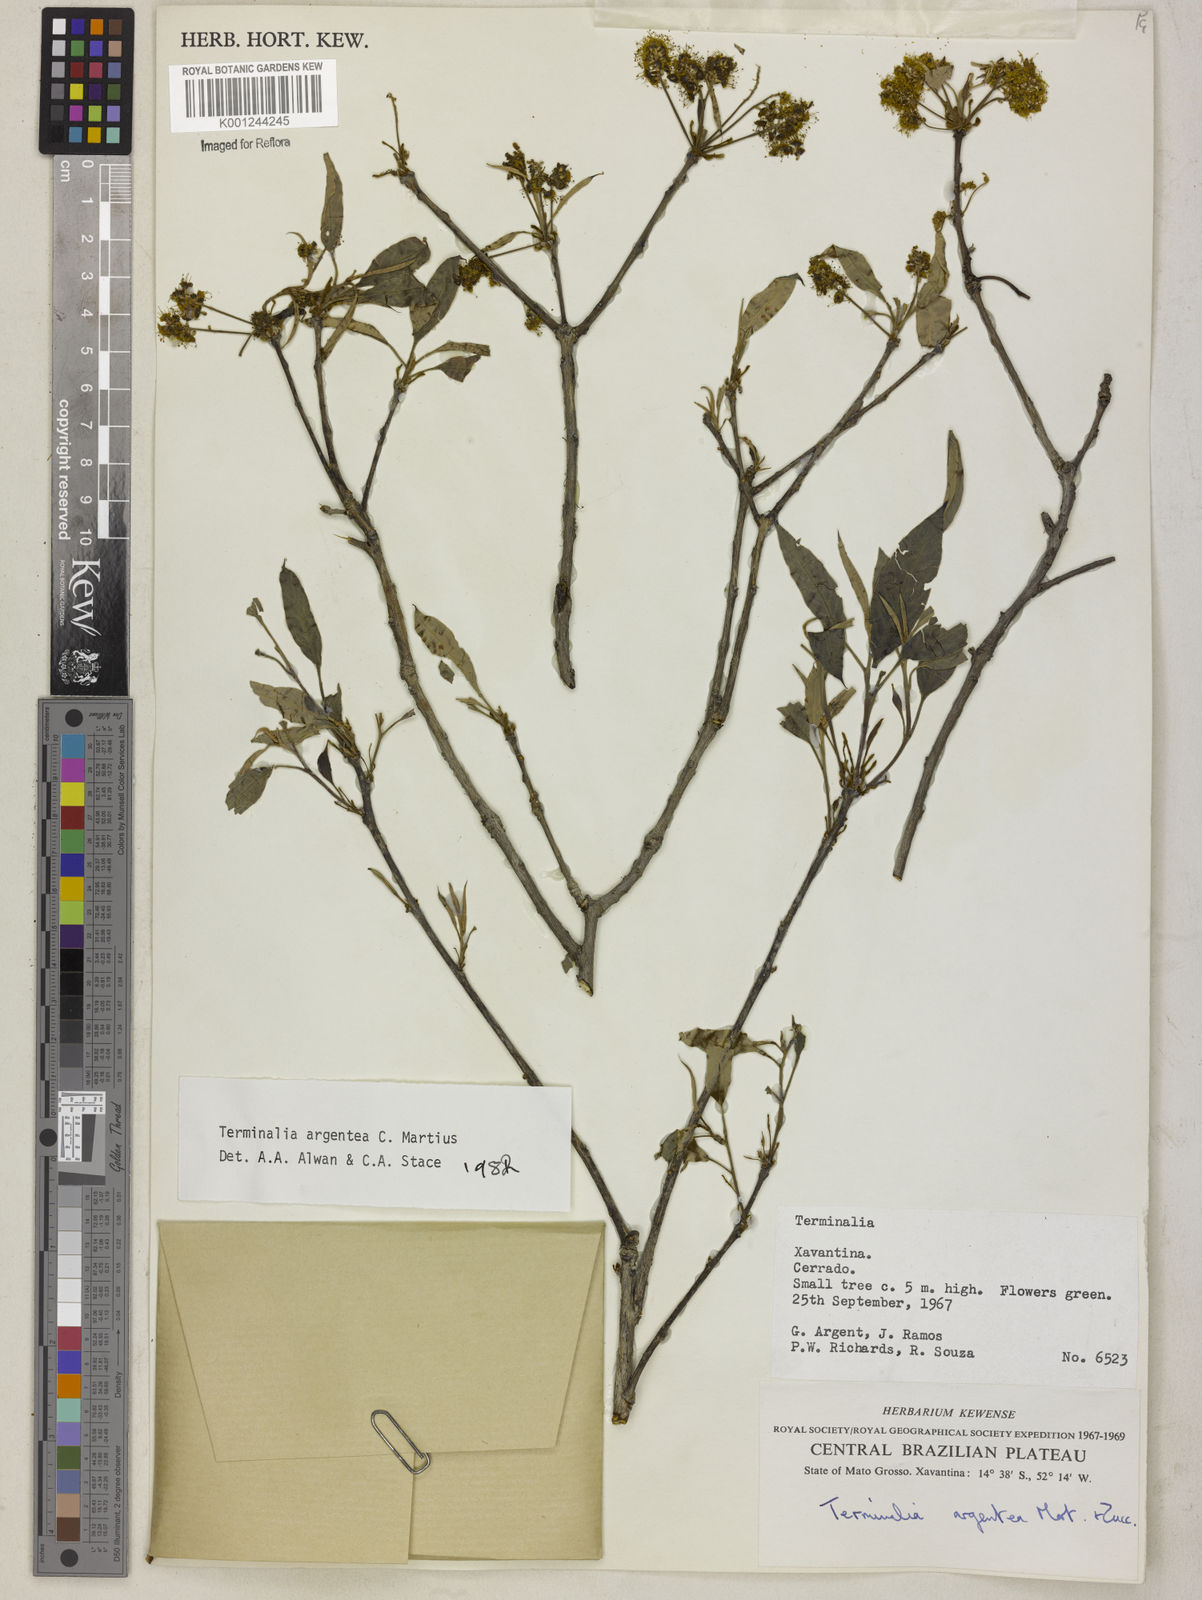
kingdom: Plantae
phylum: Tracheophyta
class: Magnoliopsida
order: Myrtales
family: Combretaceae
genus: Terminalia
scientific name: Terminalia argentea
